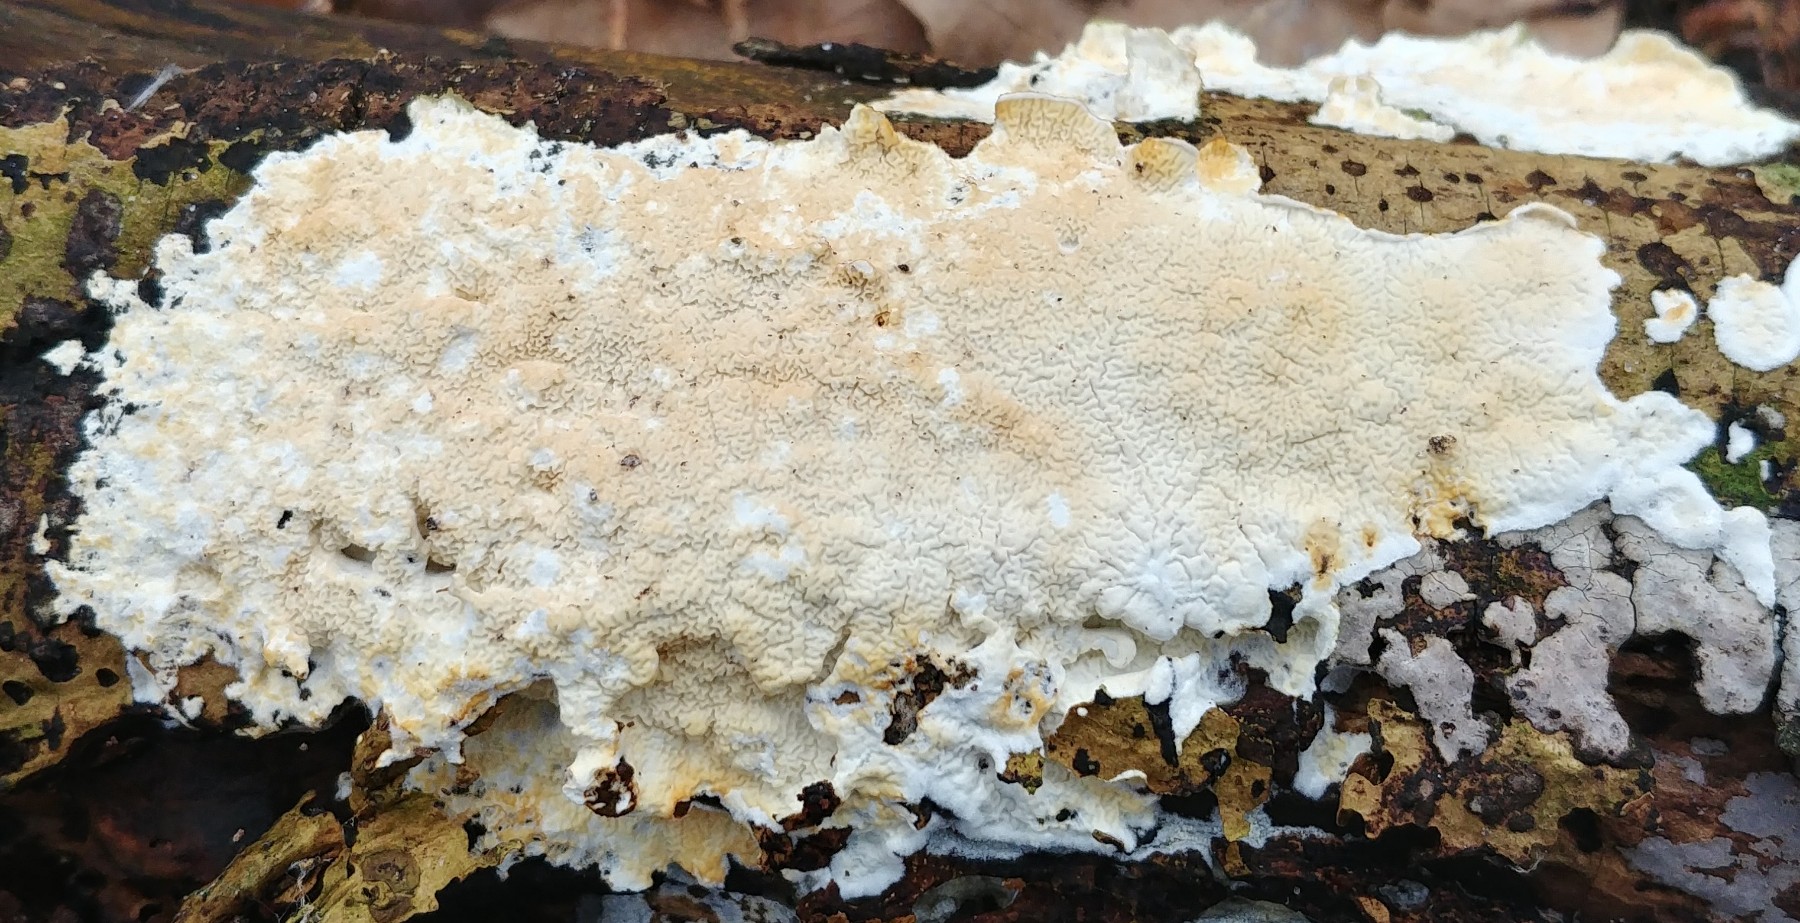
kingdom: Fungi
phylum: Basidiomycota
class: Agaricomycetes
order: Polyporales
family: Irpicaceae
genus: Byssomerulius
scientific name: Byssomerulius corium
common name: læder-åresvamp
